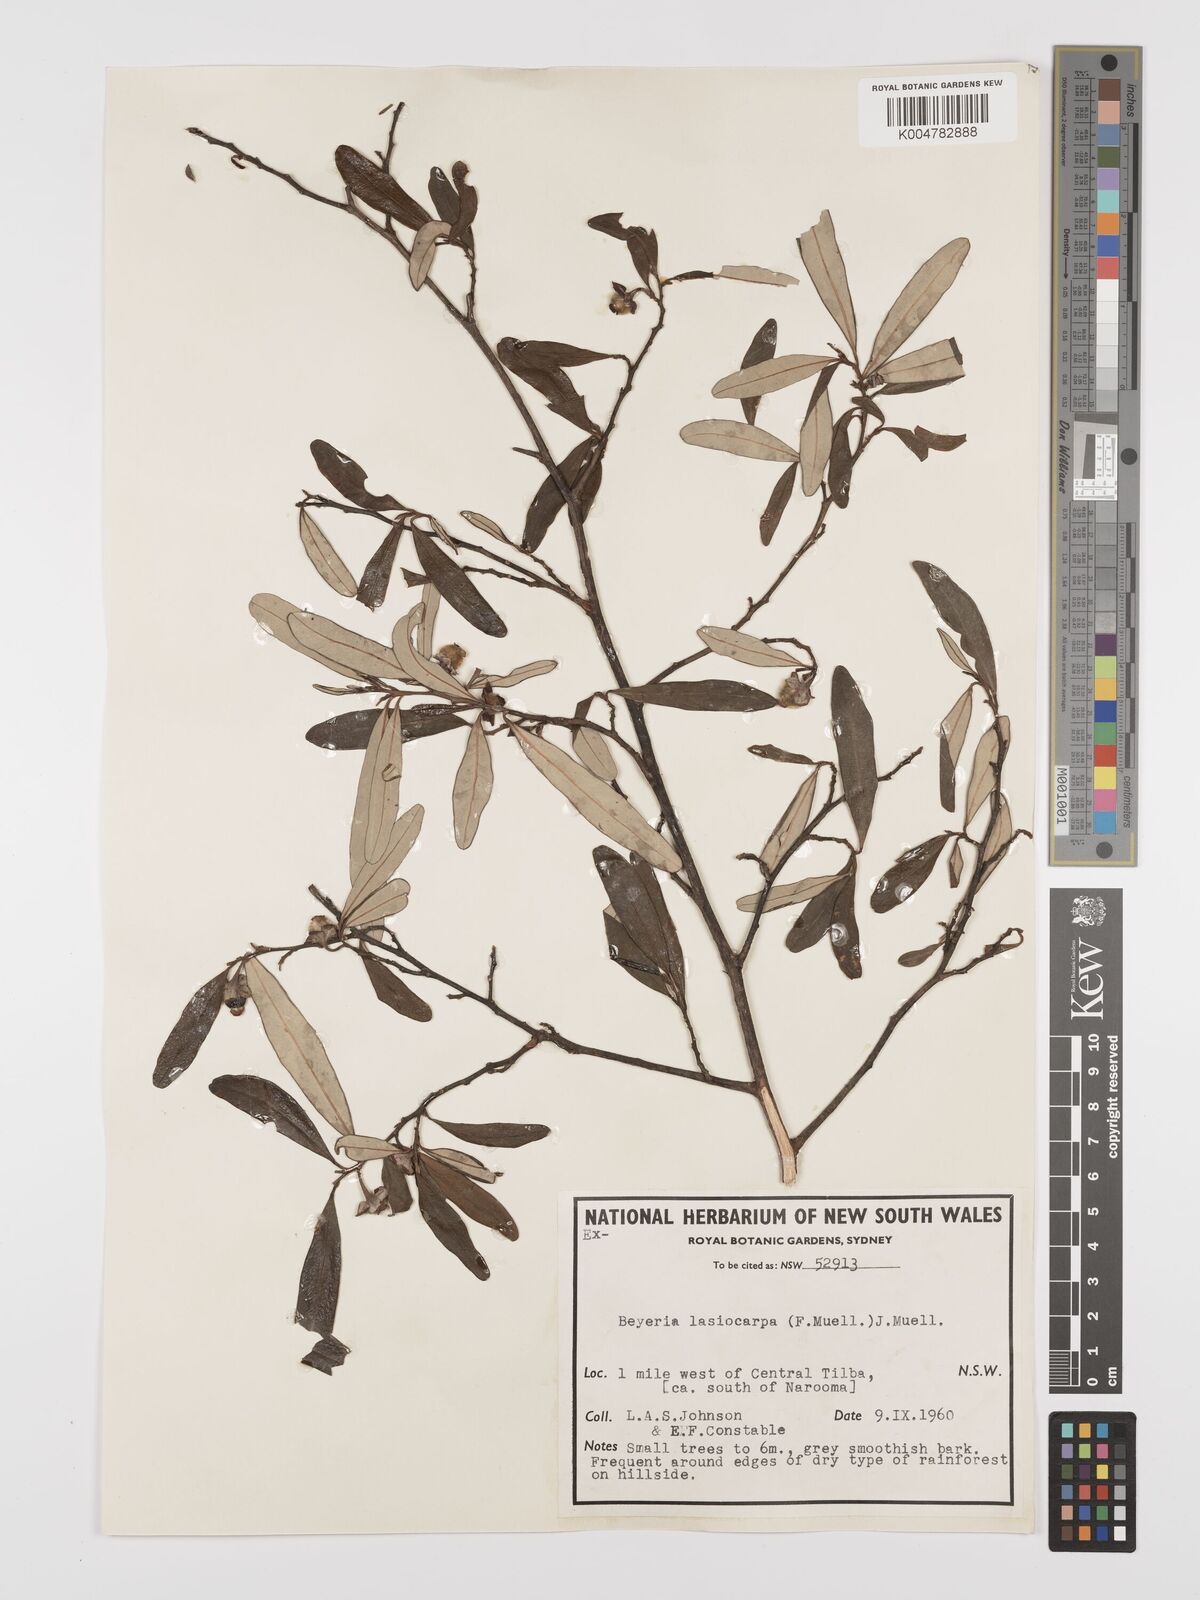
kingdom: Plantae
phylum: Tracheophyta
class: Magnoliopsida
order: Malpighiales
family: Euphorbiaceae
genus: Beyeria
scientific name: Beyeria lasiocarpa
